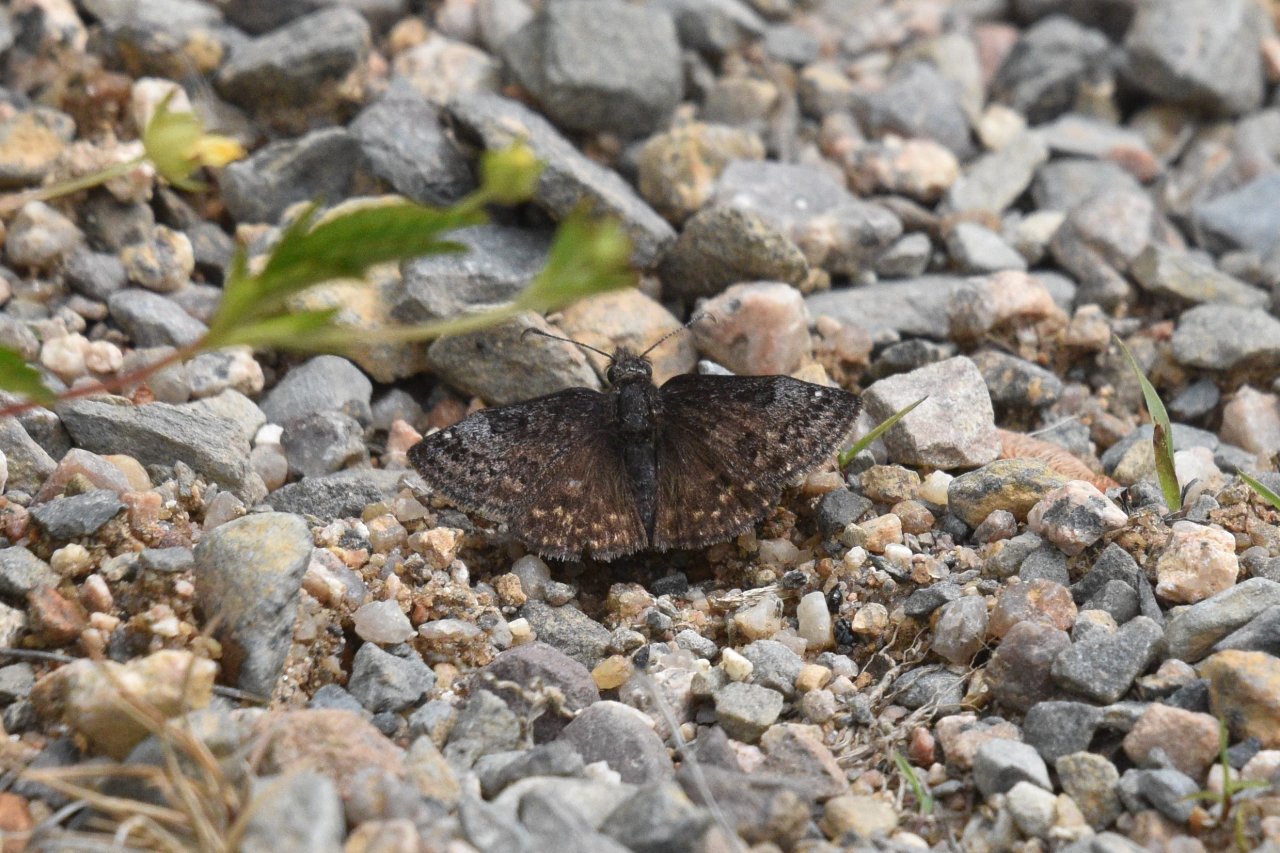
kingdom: Animalia
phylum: Arthropoda
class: Insecta
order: Lepidoptera
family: Hesperiidae
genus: Erynnis
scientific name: Erynnis icelus
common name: Dreamy Duskywing
